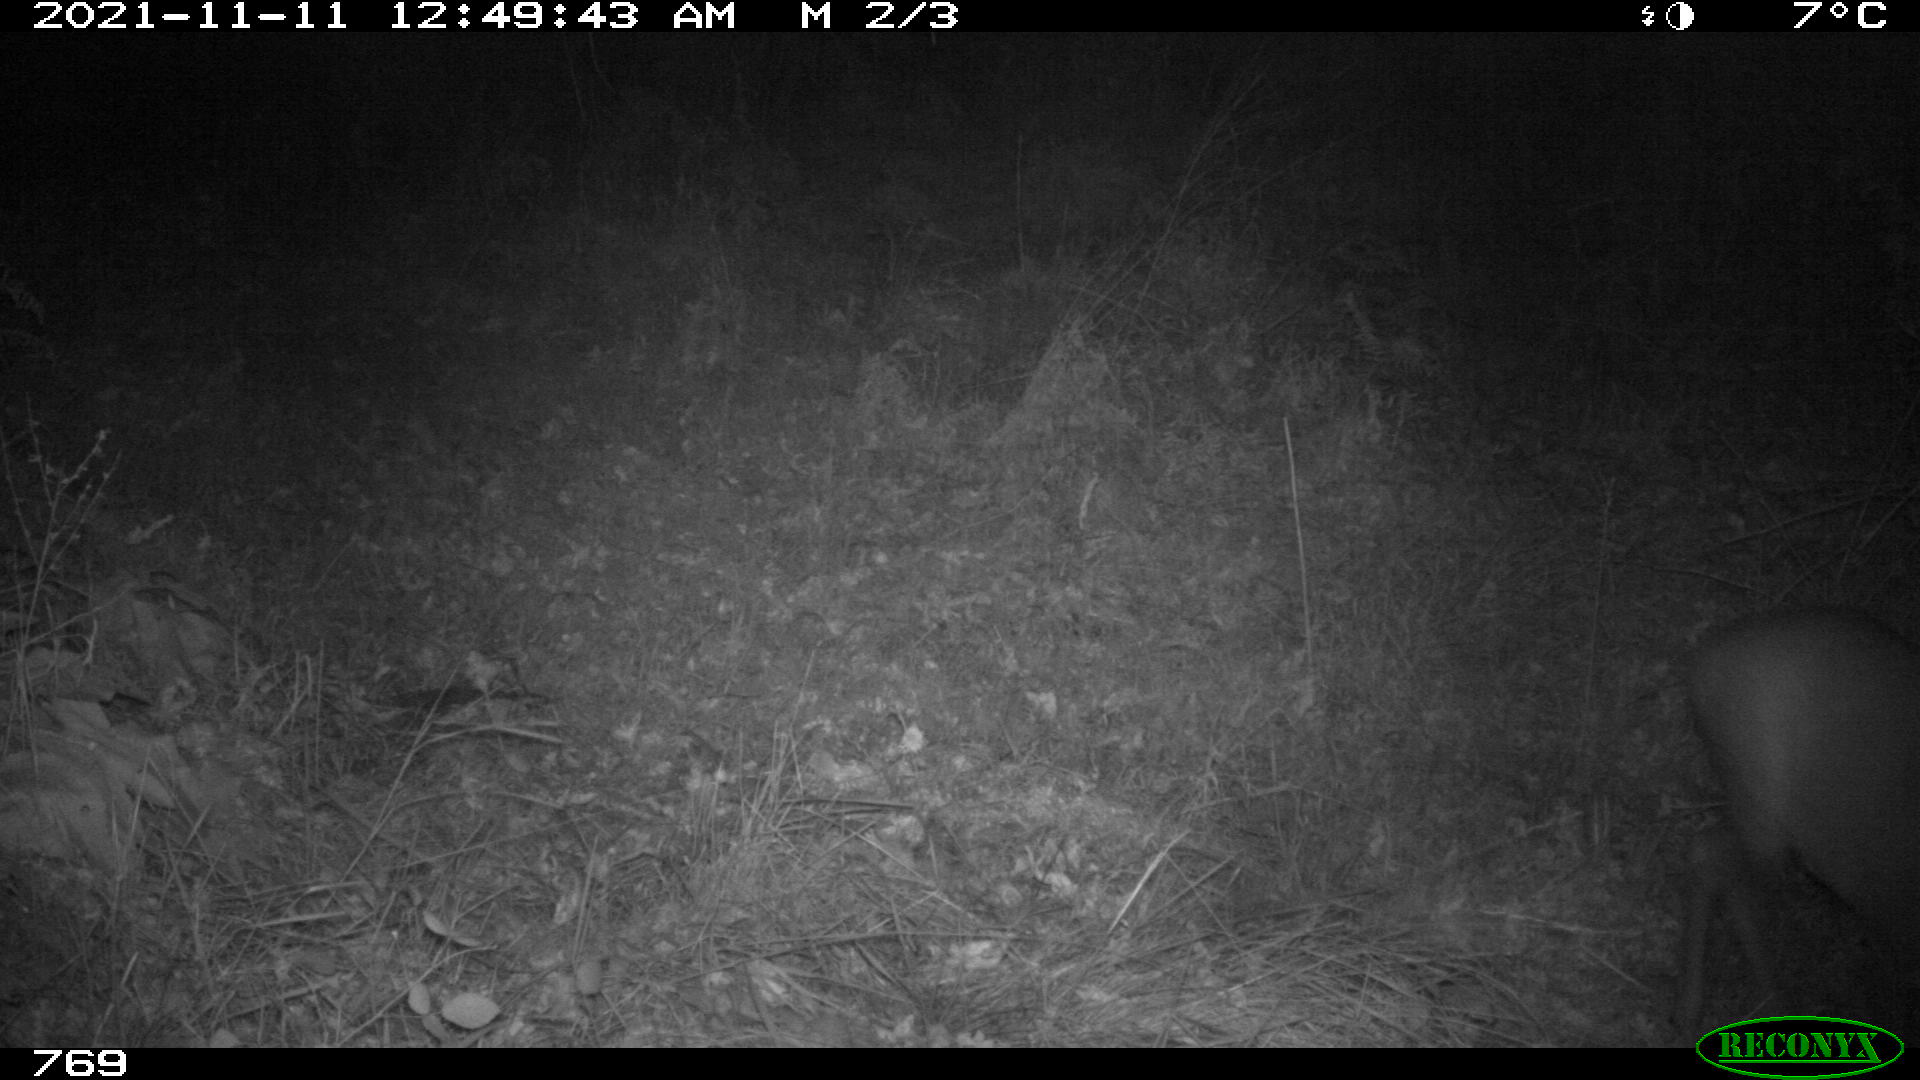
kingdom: Animalia
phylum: Chordata
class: Mammalia
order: Artiodactyla
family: Cervidae
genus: Capreolus
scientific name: Capreolus capreolus
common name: Western roe deer
